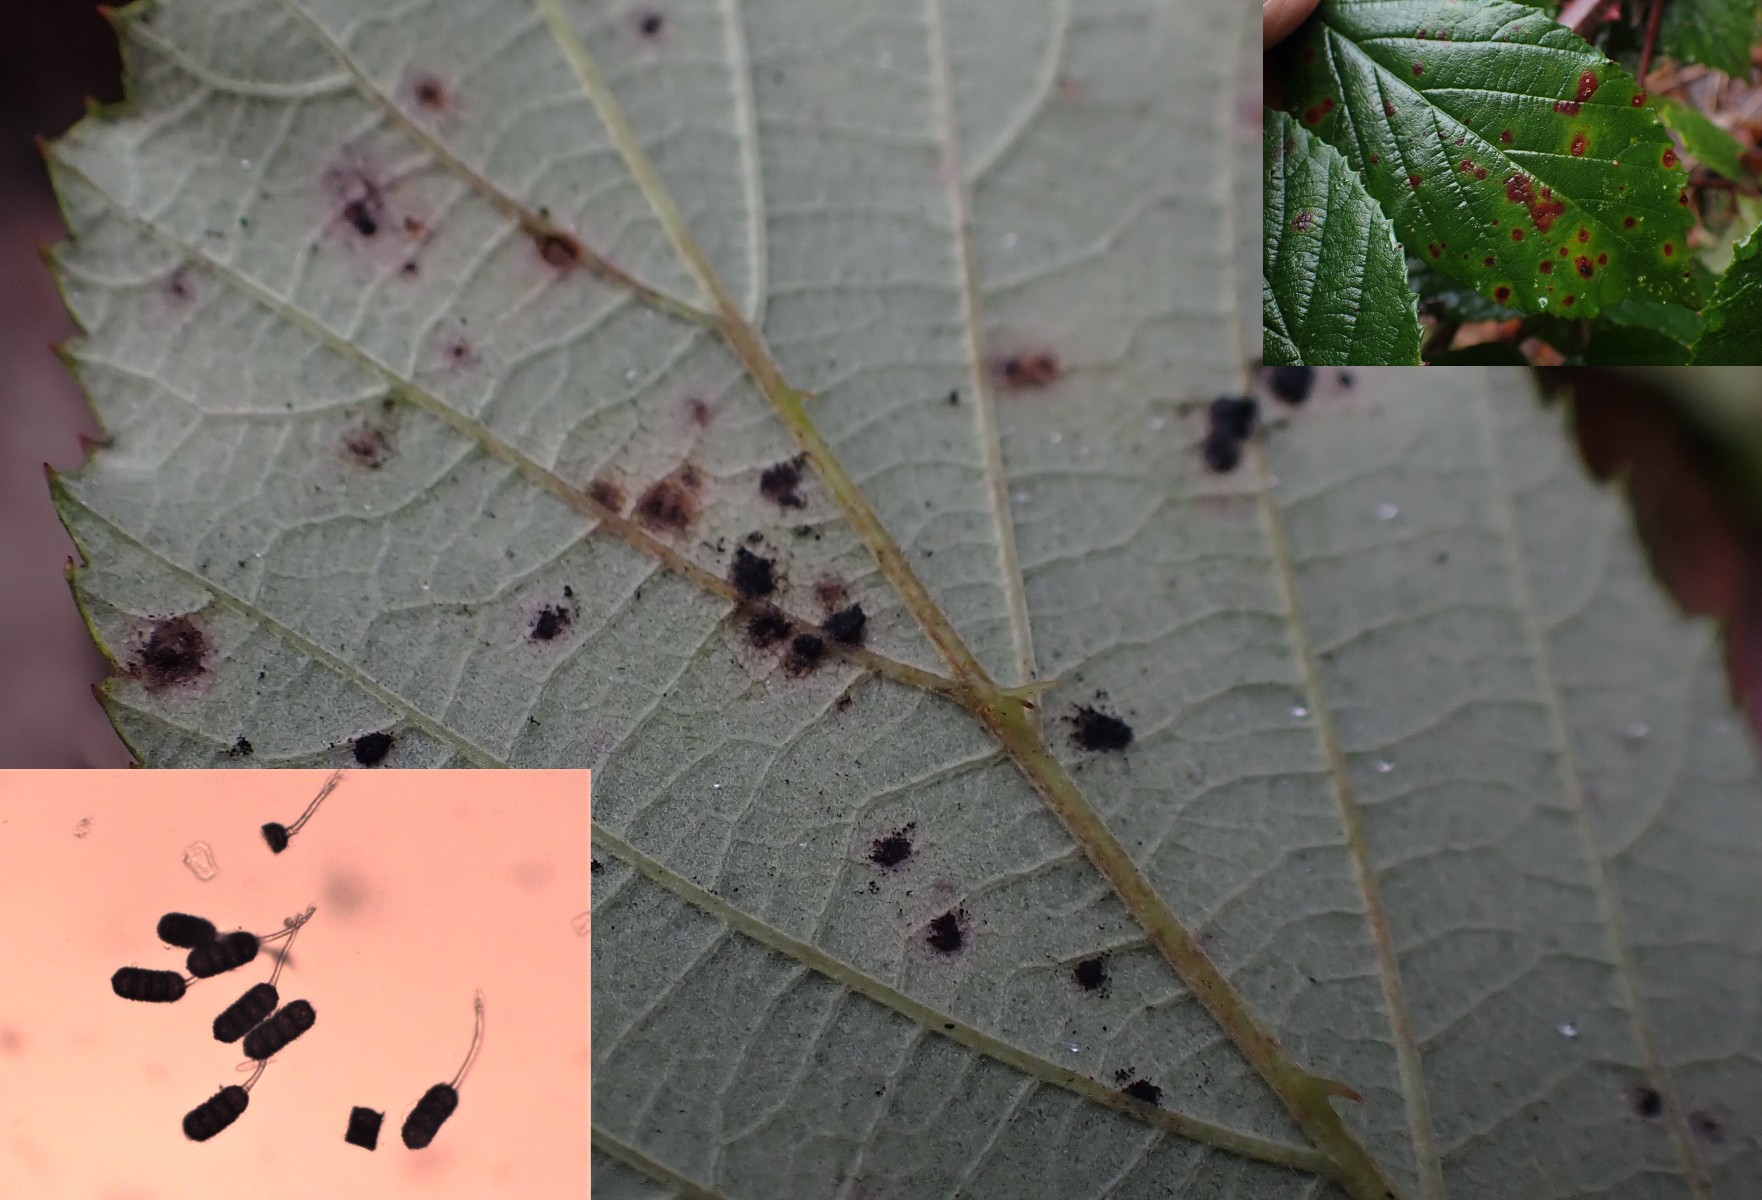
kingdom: Fungi
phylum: Basidiomycota
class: Pucciniomycetes
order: Pucciniales
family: Phragmidiaceae
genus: Phragmidium
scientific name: Phragmidium violaceum
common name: violet flercellerust
